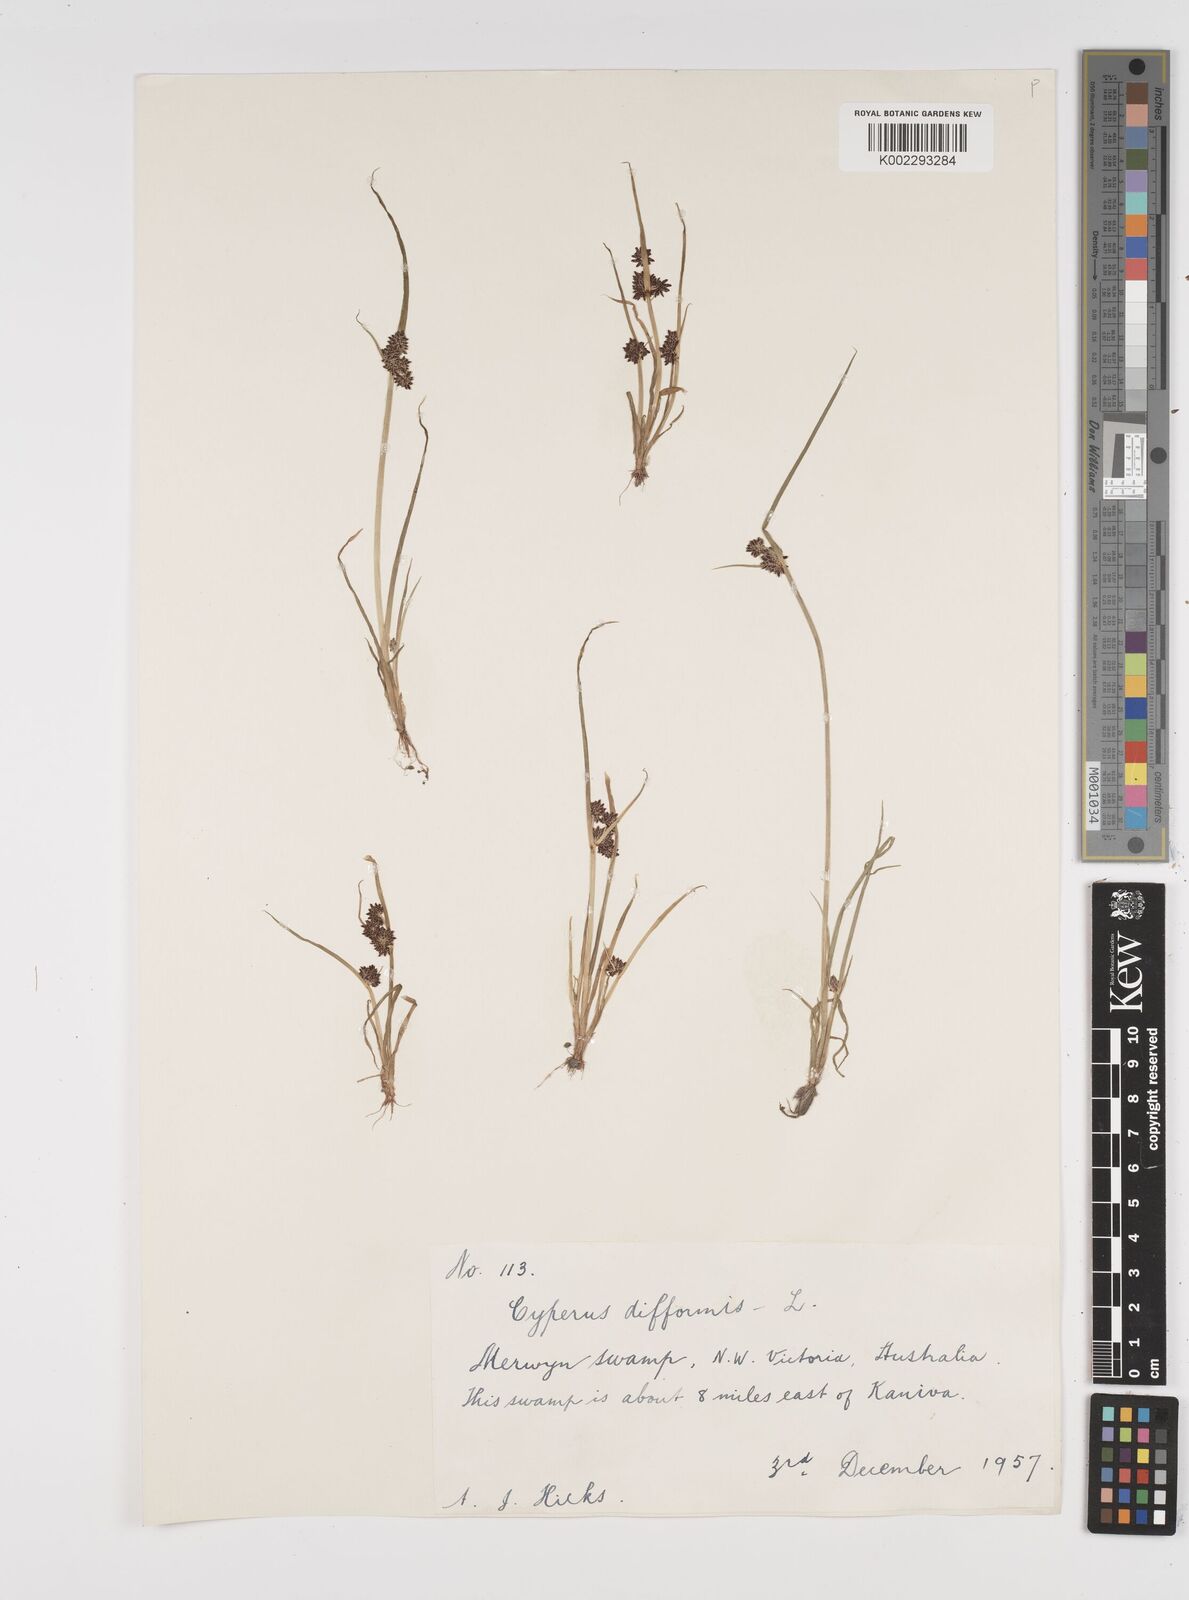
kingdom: Plantae
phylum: Tracheophyta
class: Liliopsida
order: Poales
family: Cyperaceae
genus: Cyperus
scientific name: Cyperus difformis
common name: Variable flatsedge
